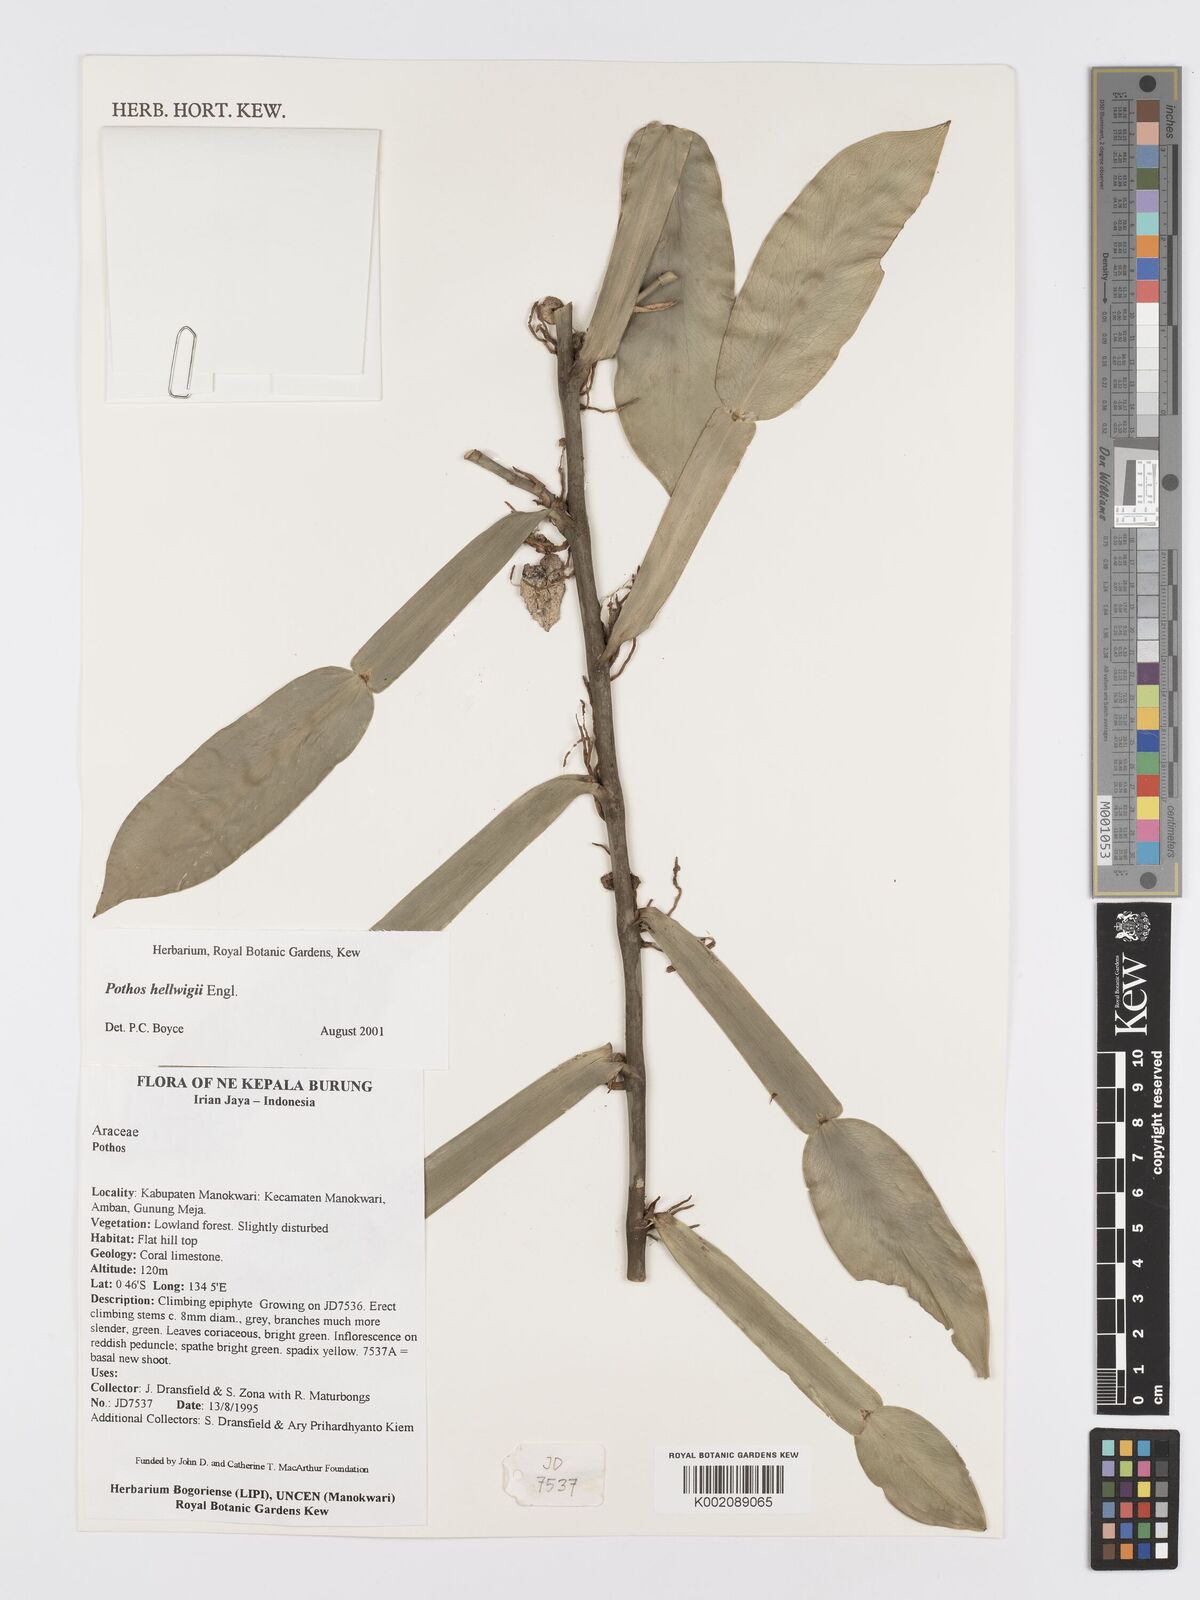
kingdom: Plantae
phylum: Tracheophyta
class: Liliopsida
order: Alismatales
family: Araceae
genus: Pothos
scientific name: Pothos hellwigii
